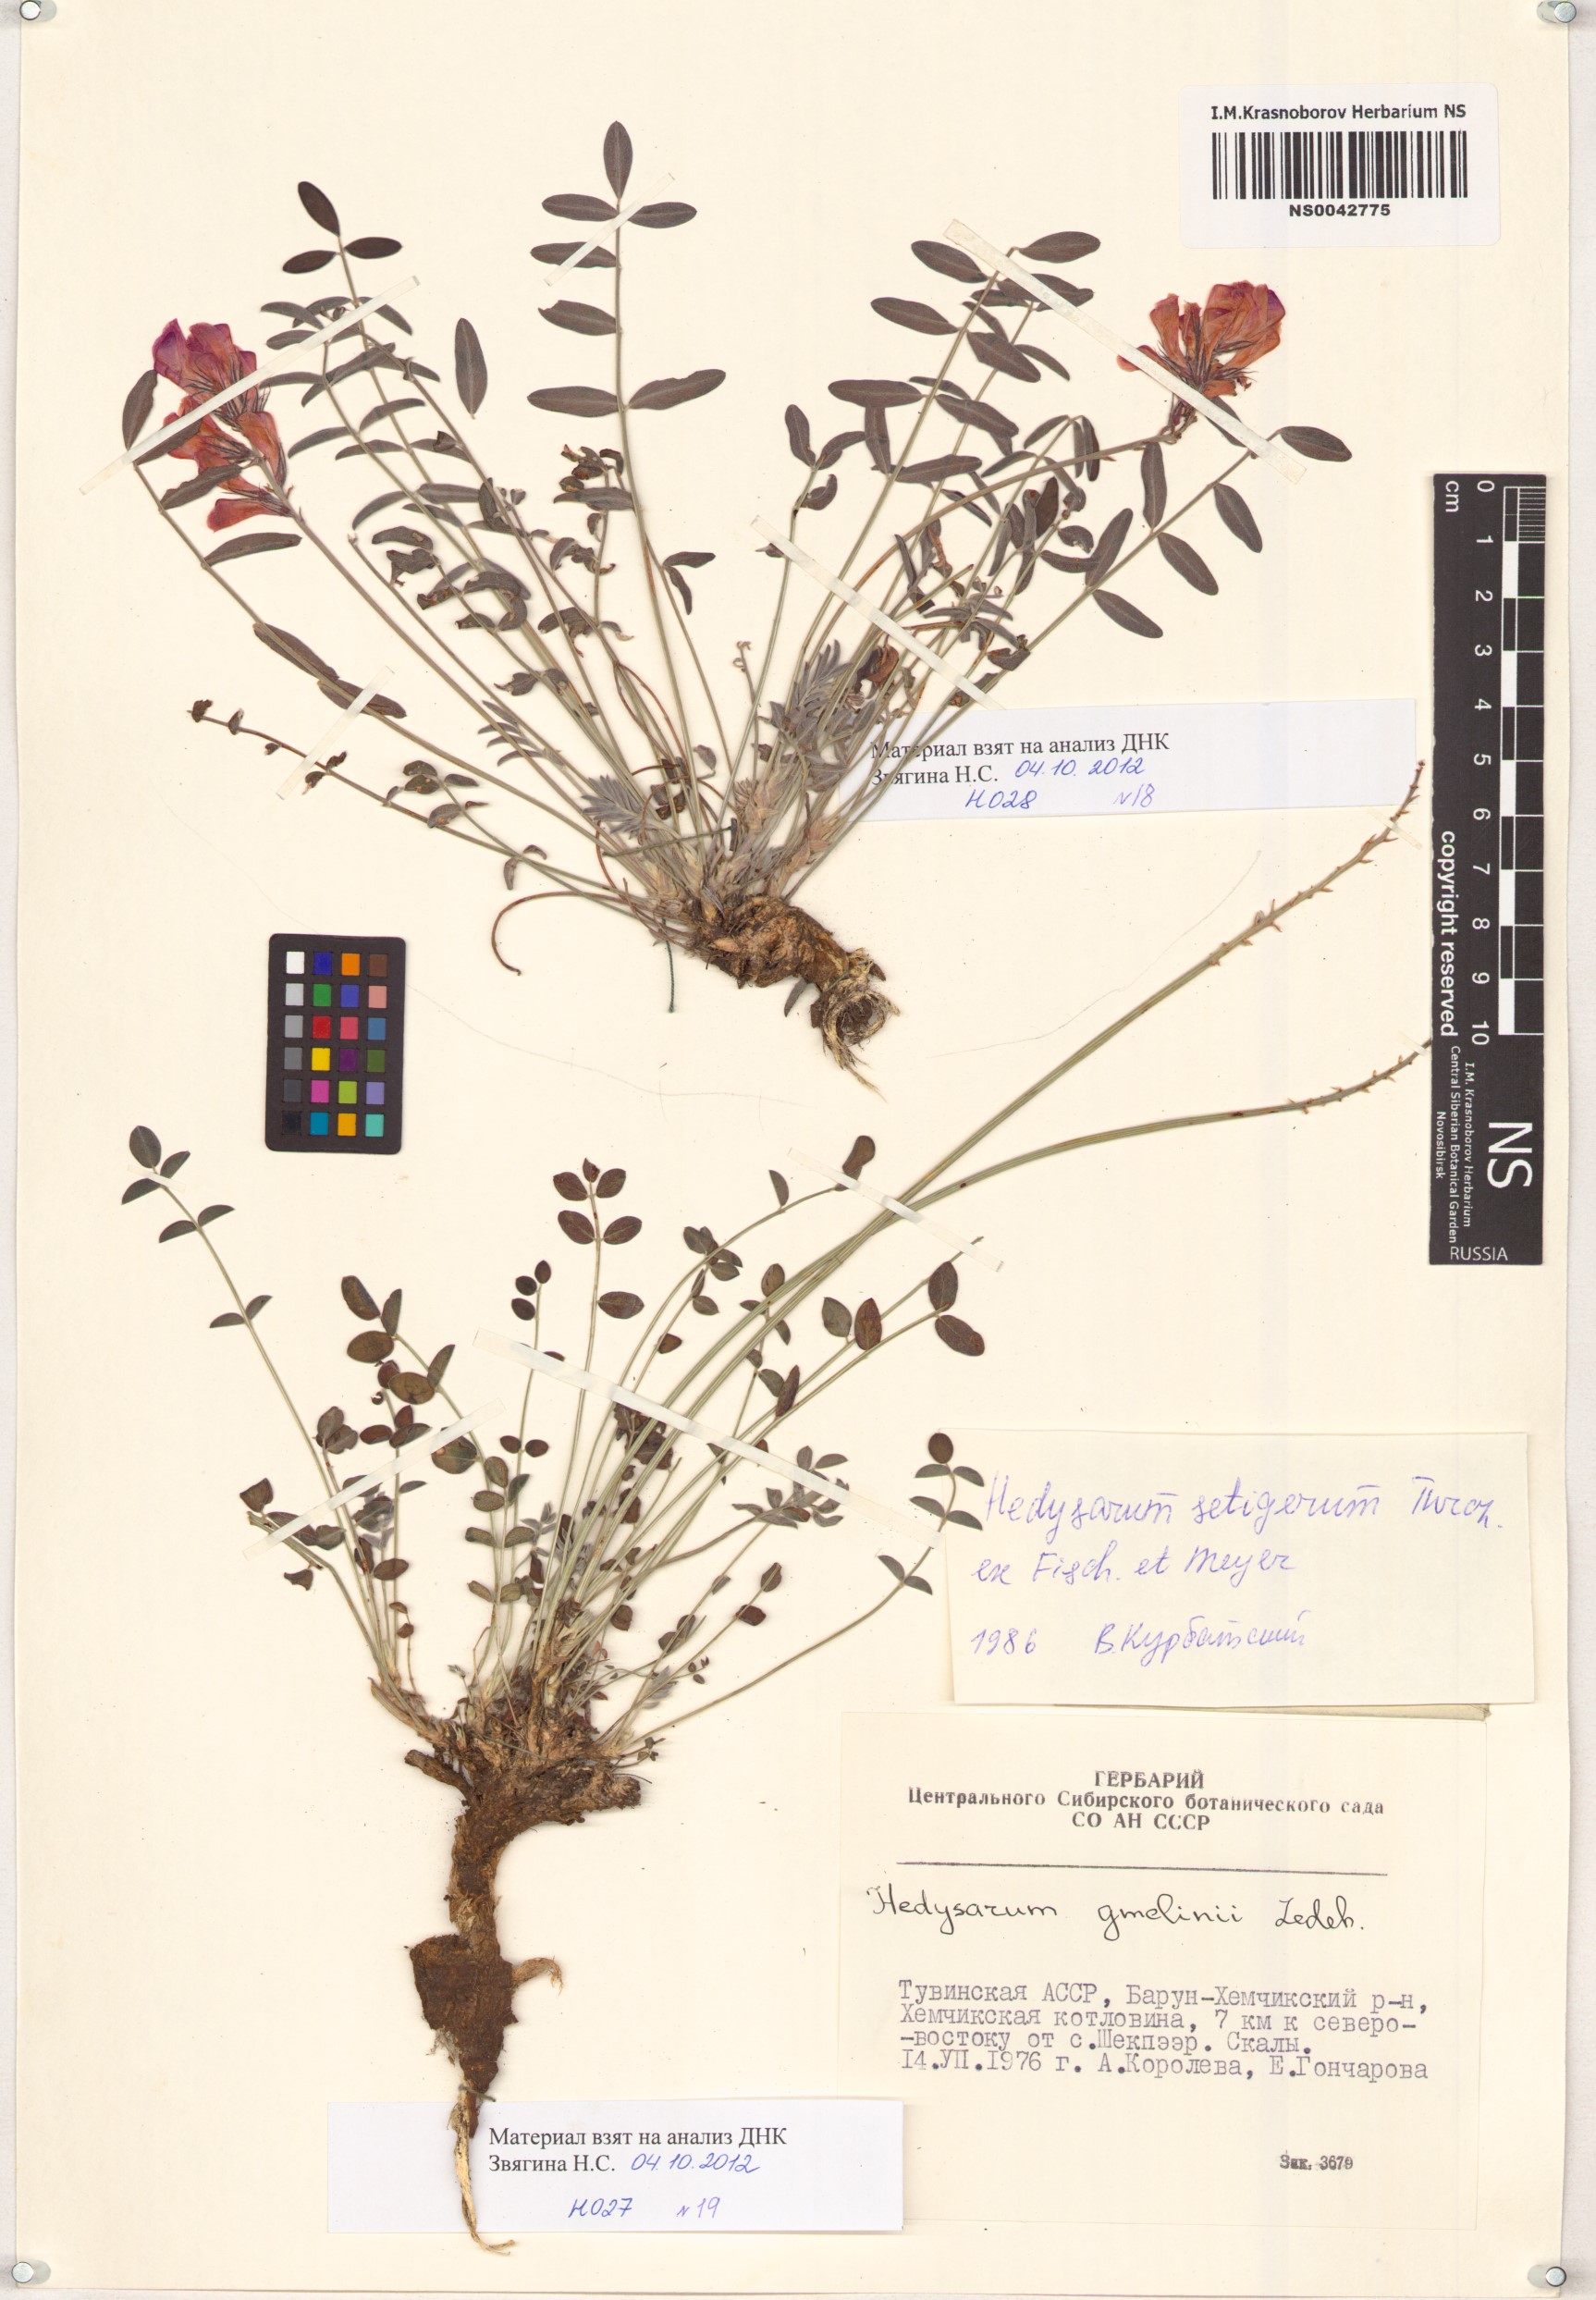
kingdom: Plantae
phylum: Tracheophyta
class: Magnoliopsida
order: Fabales
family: Fabaceae
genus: Hedysarum
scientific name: Hedysarum setigerum
